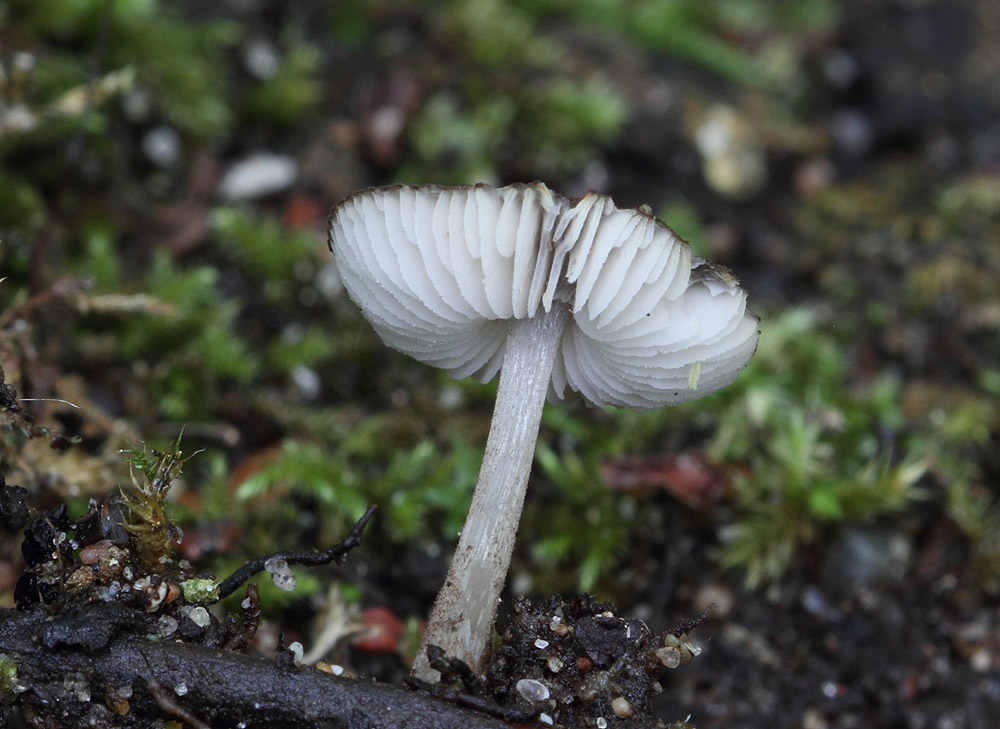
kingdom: Fungi
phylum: Basidiomycota
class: Agaricomycetes
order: Agaricales
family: Pluteaceae
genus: Pluteus
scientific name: Pluteus podospileus
